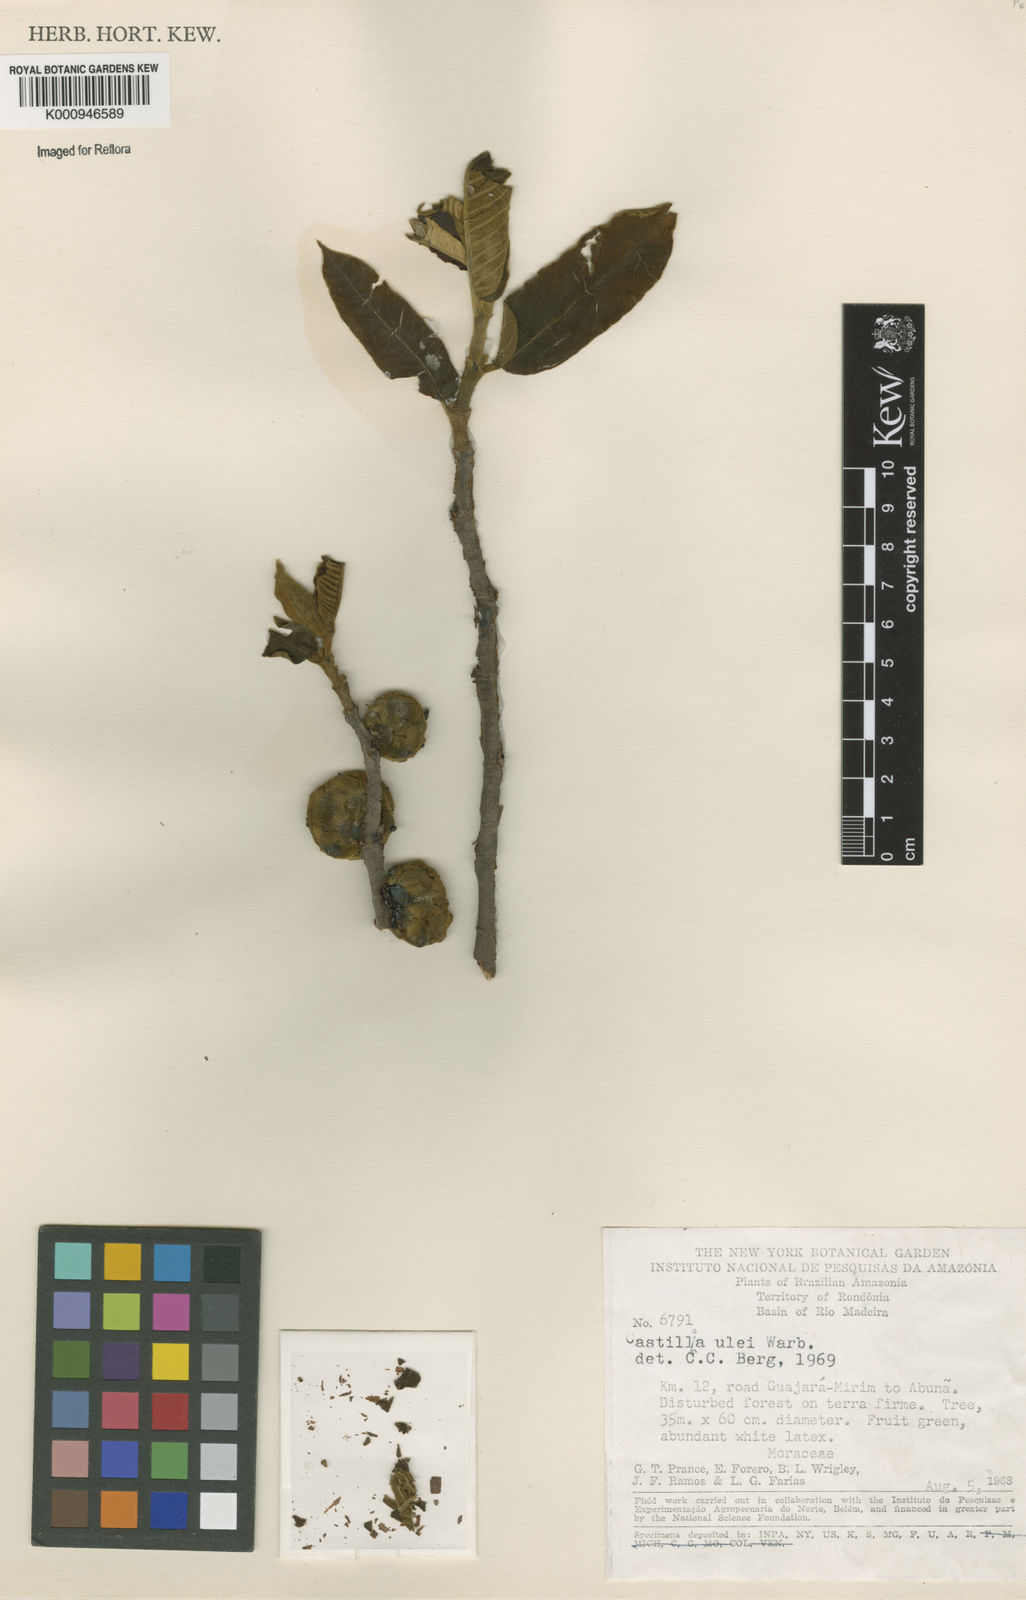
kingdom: Plantae
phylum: Tracheophyta
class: Magnoliopsida
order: Rosales
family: Moraceae
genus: Castilla
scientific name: Castilla ulei
